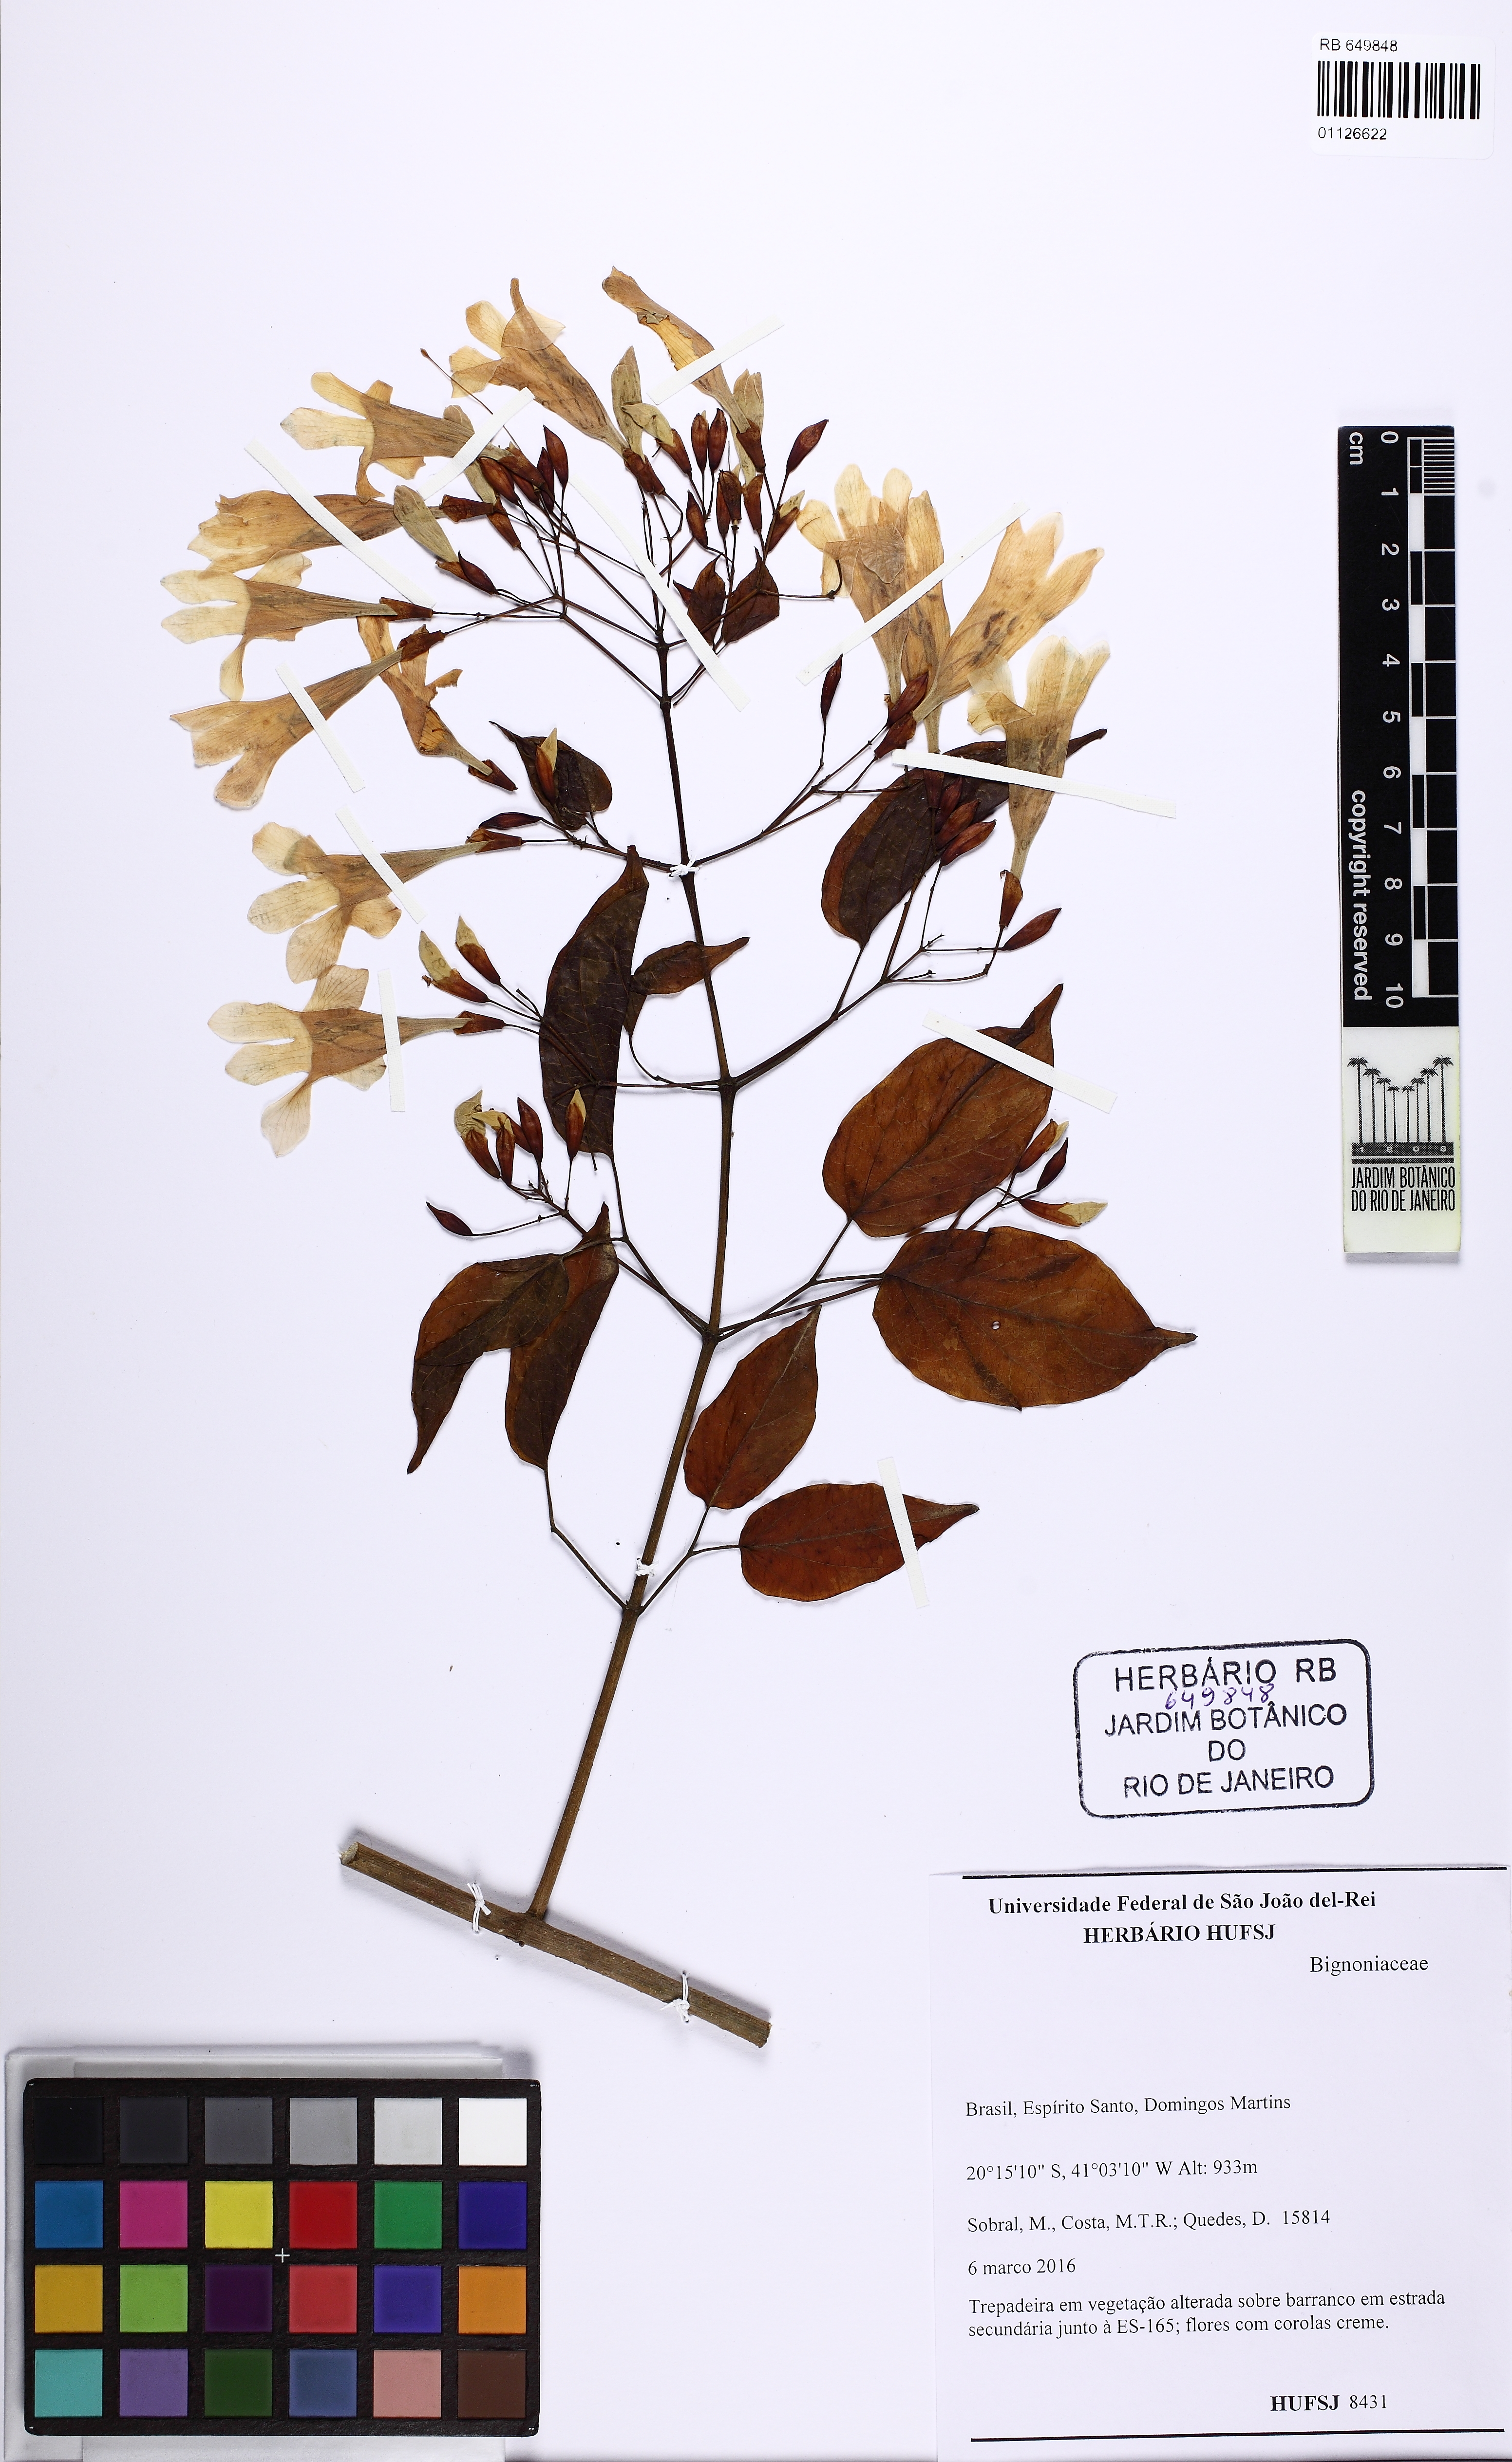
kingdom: Plantae
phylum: Tracheophyta
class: Magnoliopsida
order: Lamiales
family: Bignoniaceae
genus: Lundia
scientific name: Lundia nitidula
